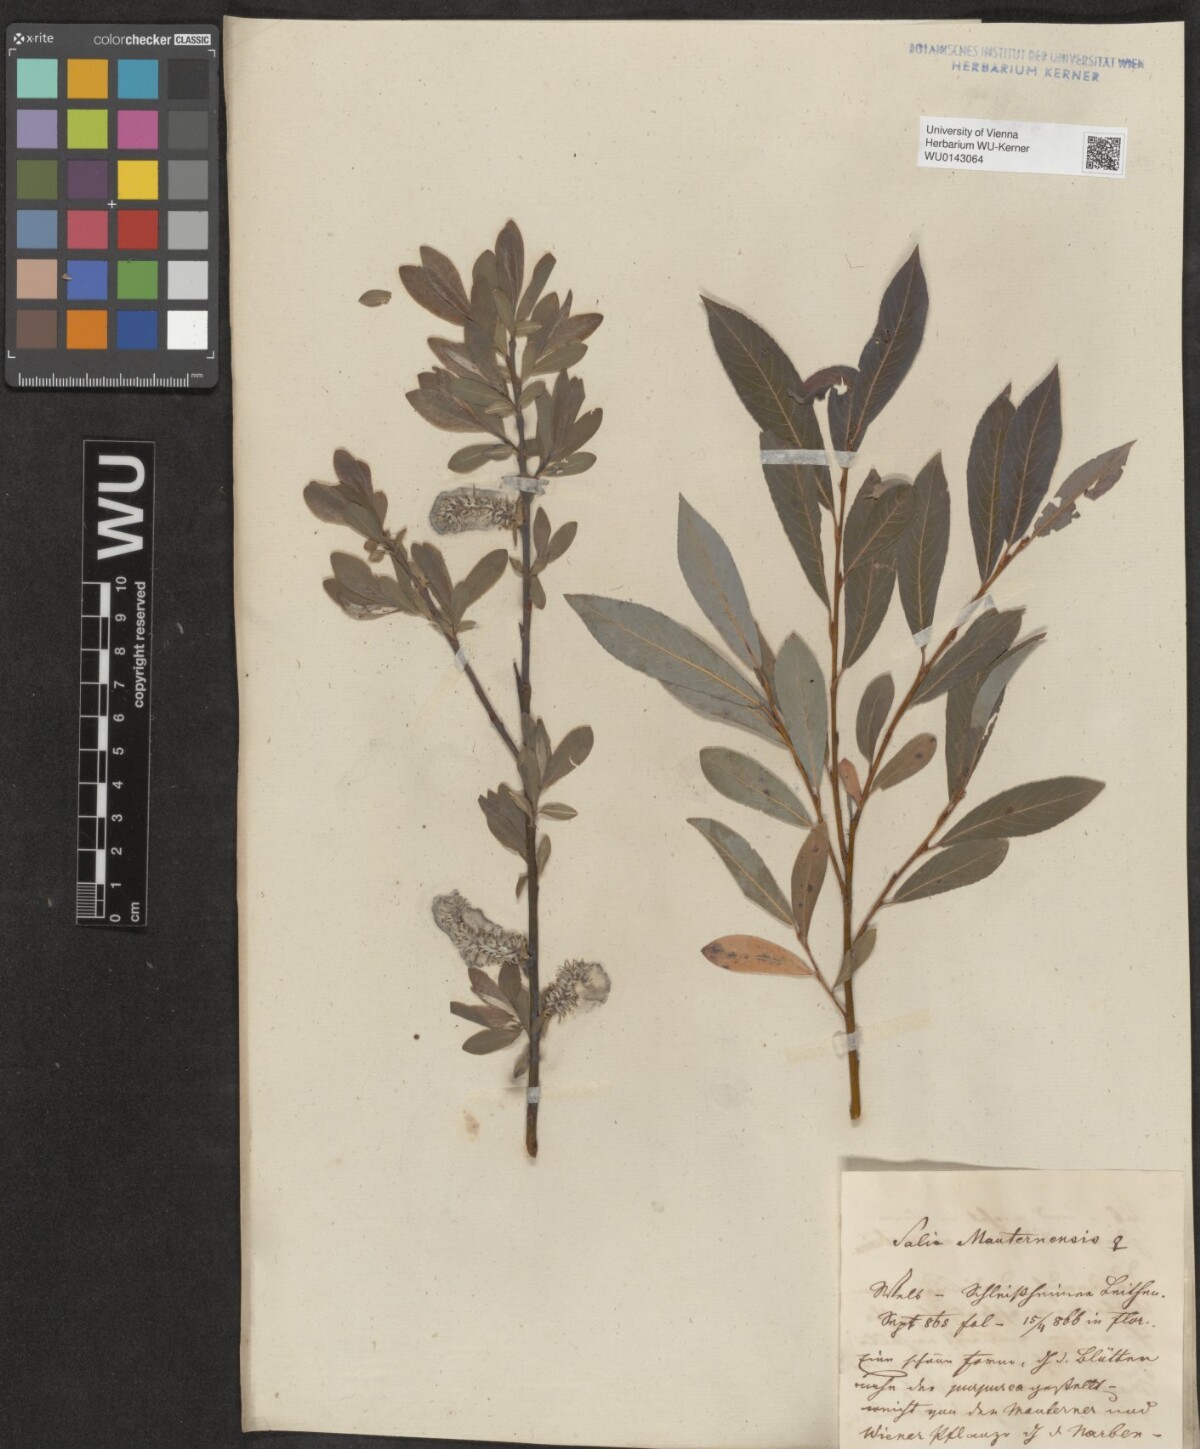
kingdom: Plantae
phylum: Tracheophyta
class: Magnoliopsida
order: Malpighiales
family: Salicaceae
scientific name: Salicaceae
